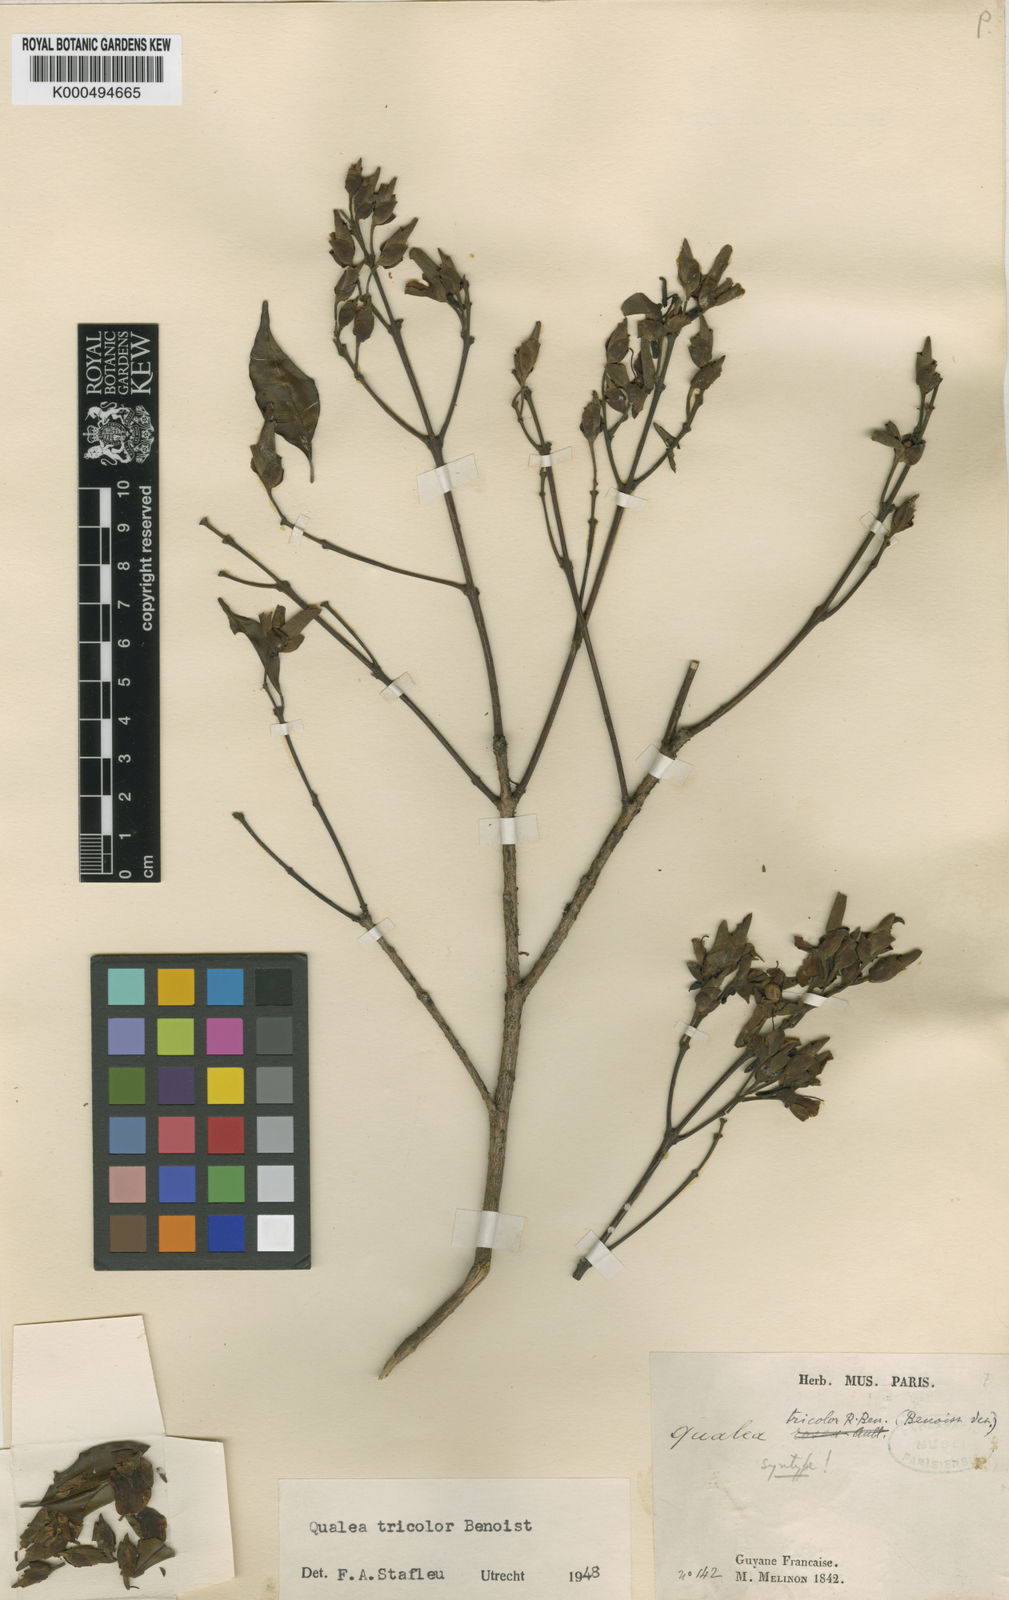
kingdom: Plantae
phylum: Tracheophyta
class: Magnoliopsida
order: Myrtales
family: Vochysiaceae
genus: Qualea
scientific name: Qualea tricolor
